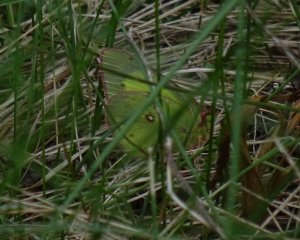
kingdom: Animalia
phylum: Arthropoda
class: Insecta
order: Lepidoptera
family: Pieridae
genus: Colias
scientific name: Colias philodice
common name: Clouded Sulphur
